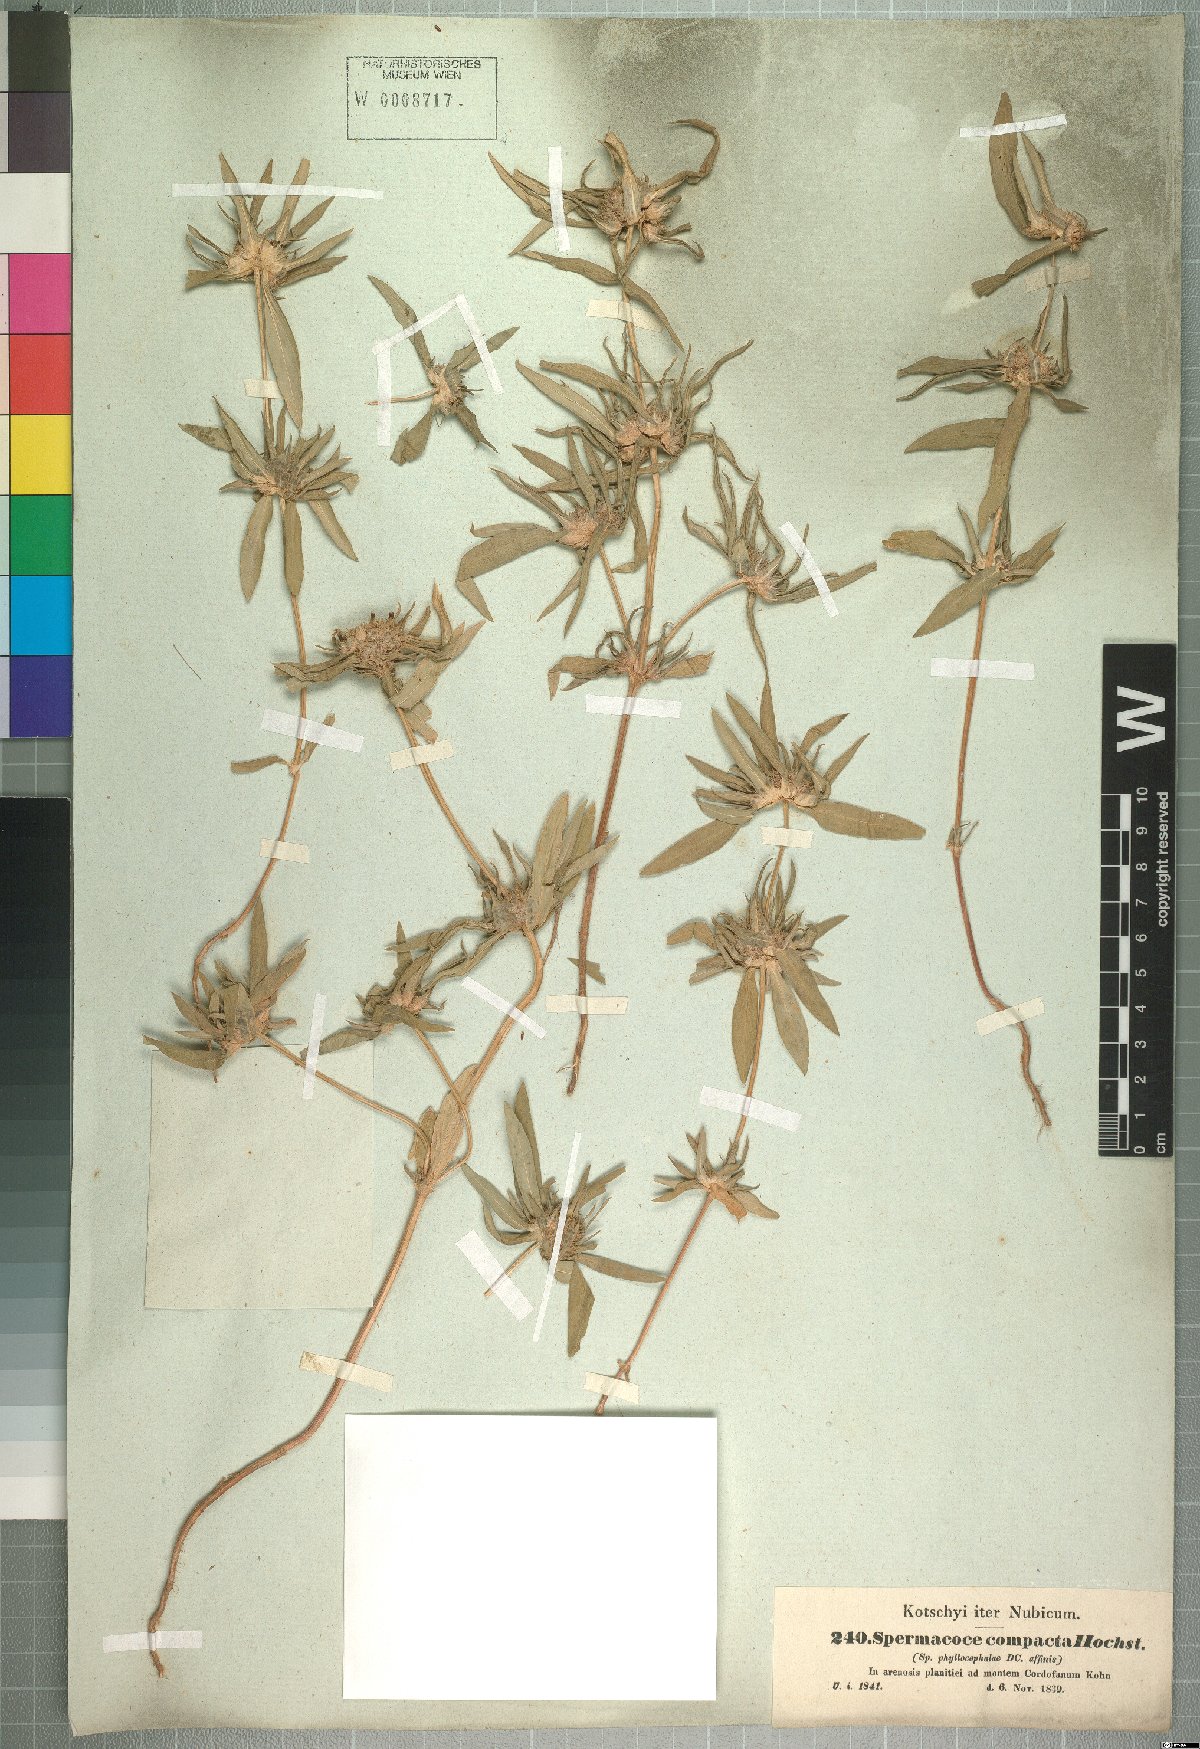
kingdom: Plantae
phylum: Tracheophyta
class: Magnoliopsida
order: Gentianales
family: Rubiaceae
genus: Spermacoce
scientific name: Spermacoce chaetocephala
